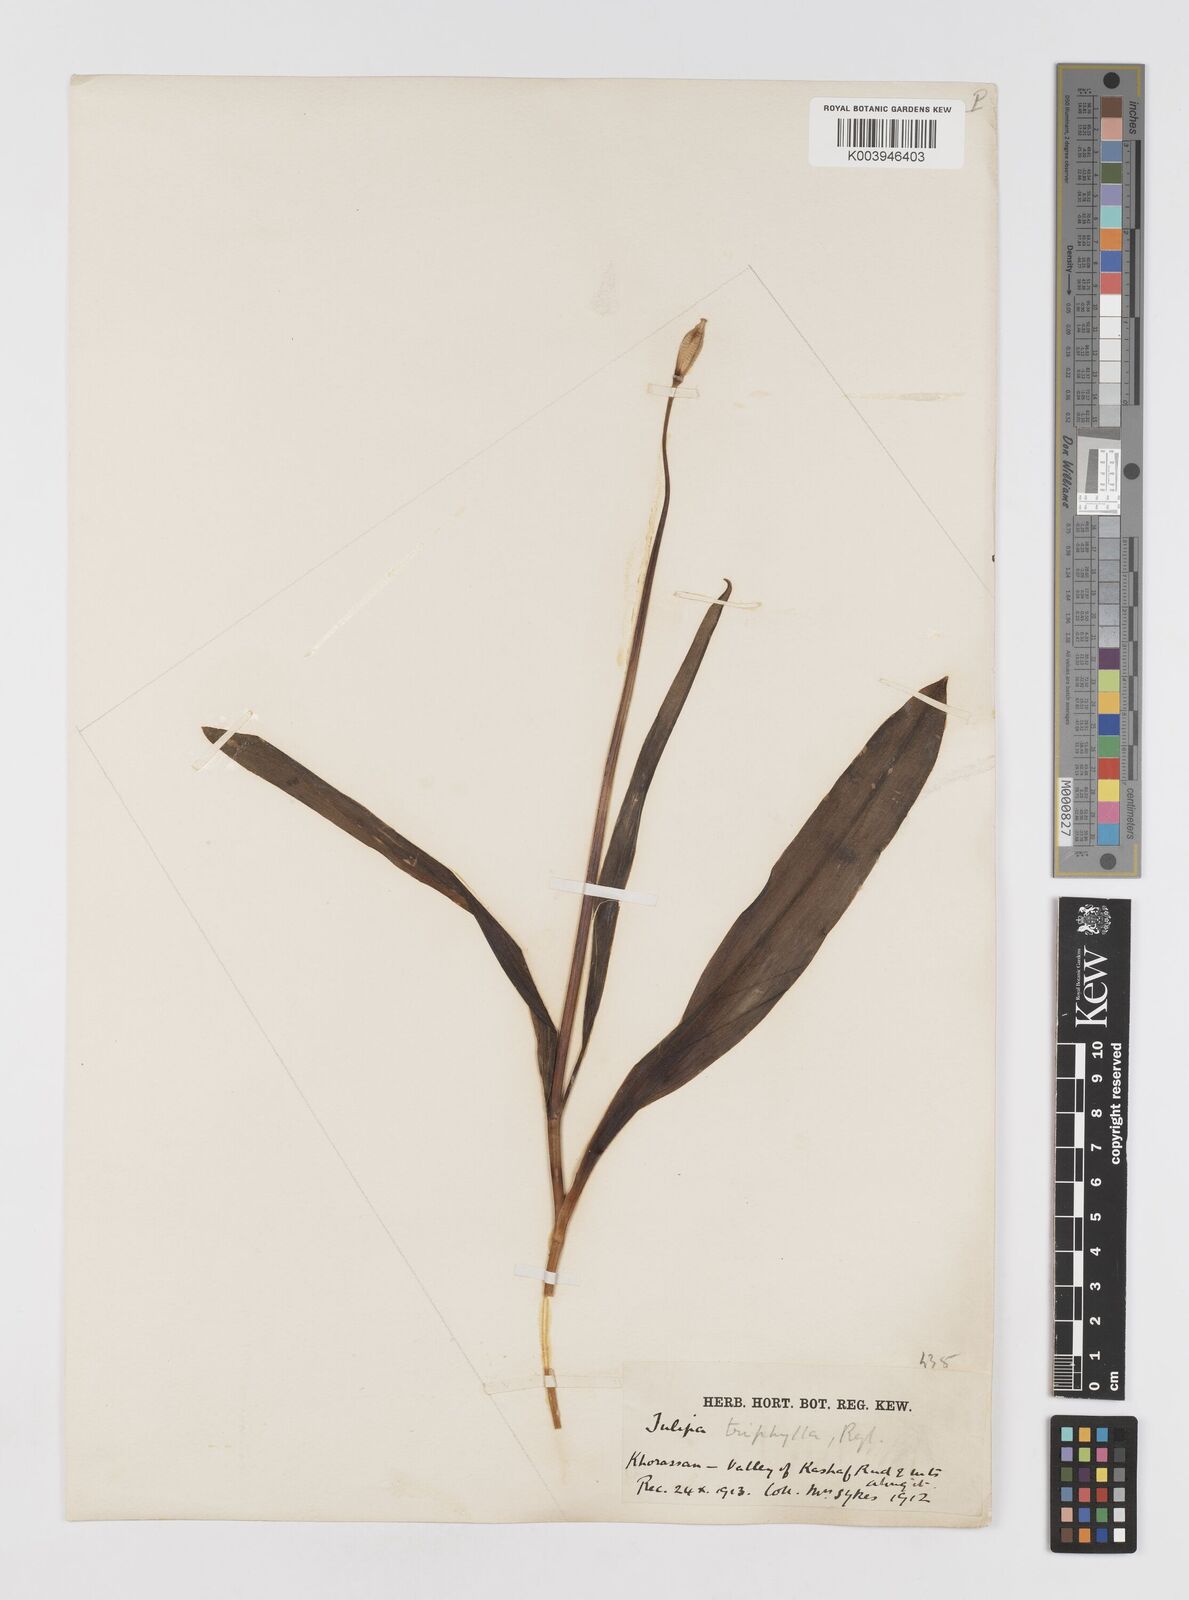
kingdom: Plantae
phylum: Tracheophyta
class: Liliopsida
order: Liliales
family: Liliaceae
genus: Tulipa
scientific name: Tulipa
